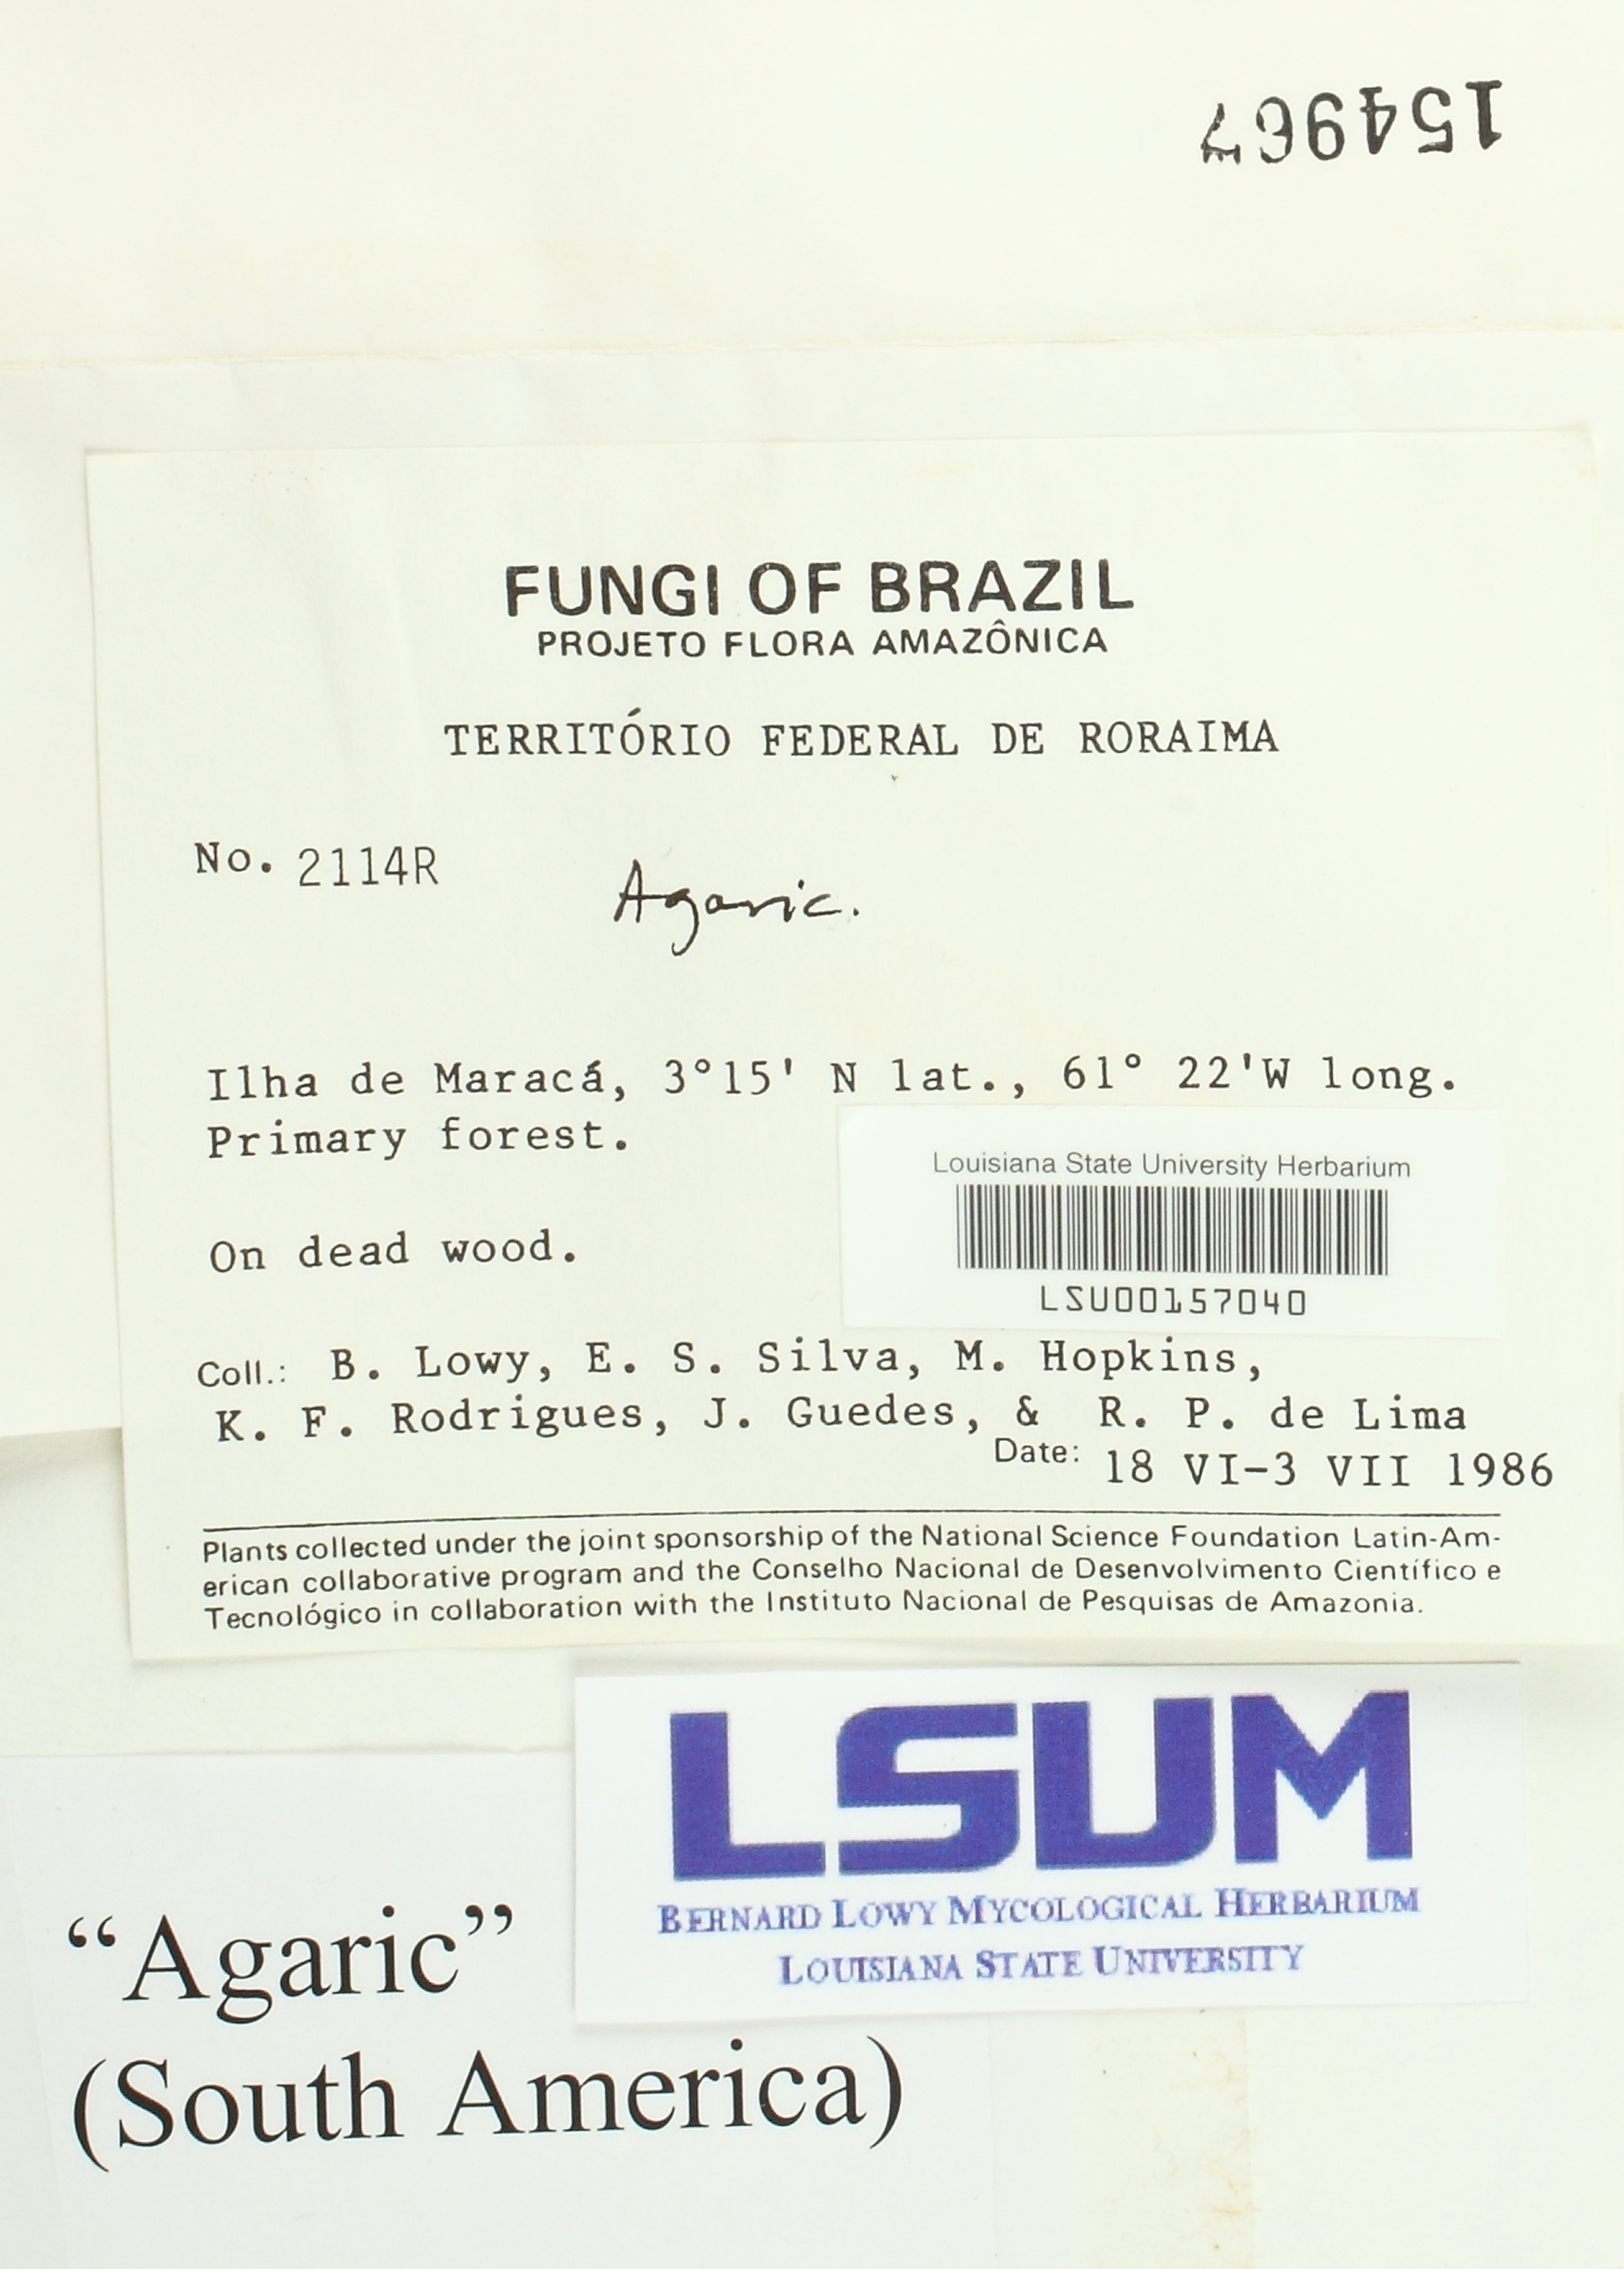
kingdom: Fungi
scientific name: Fungi
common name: Fungi
